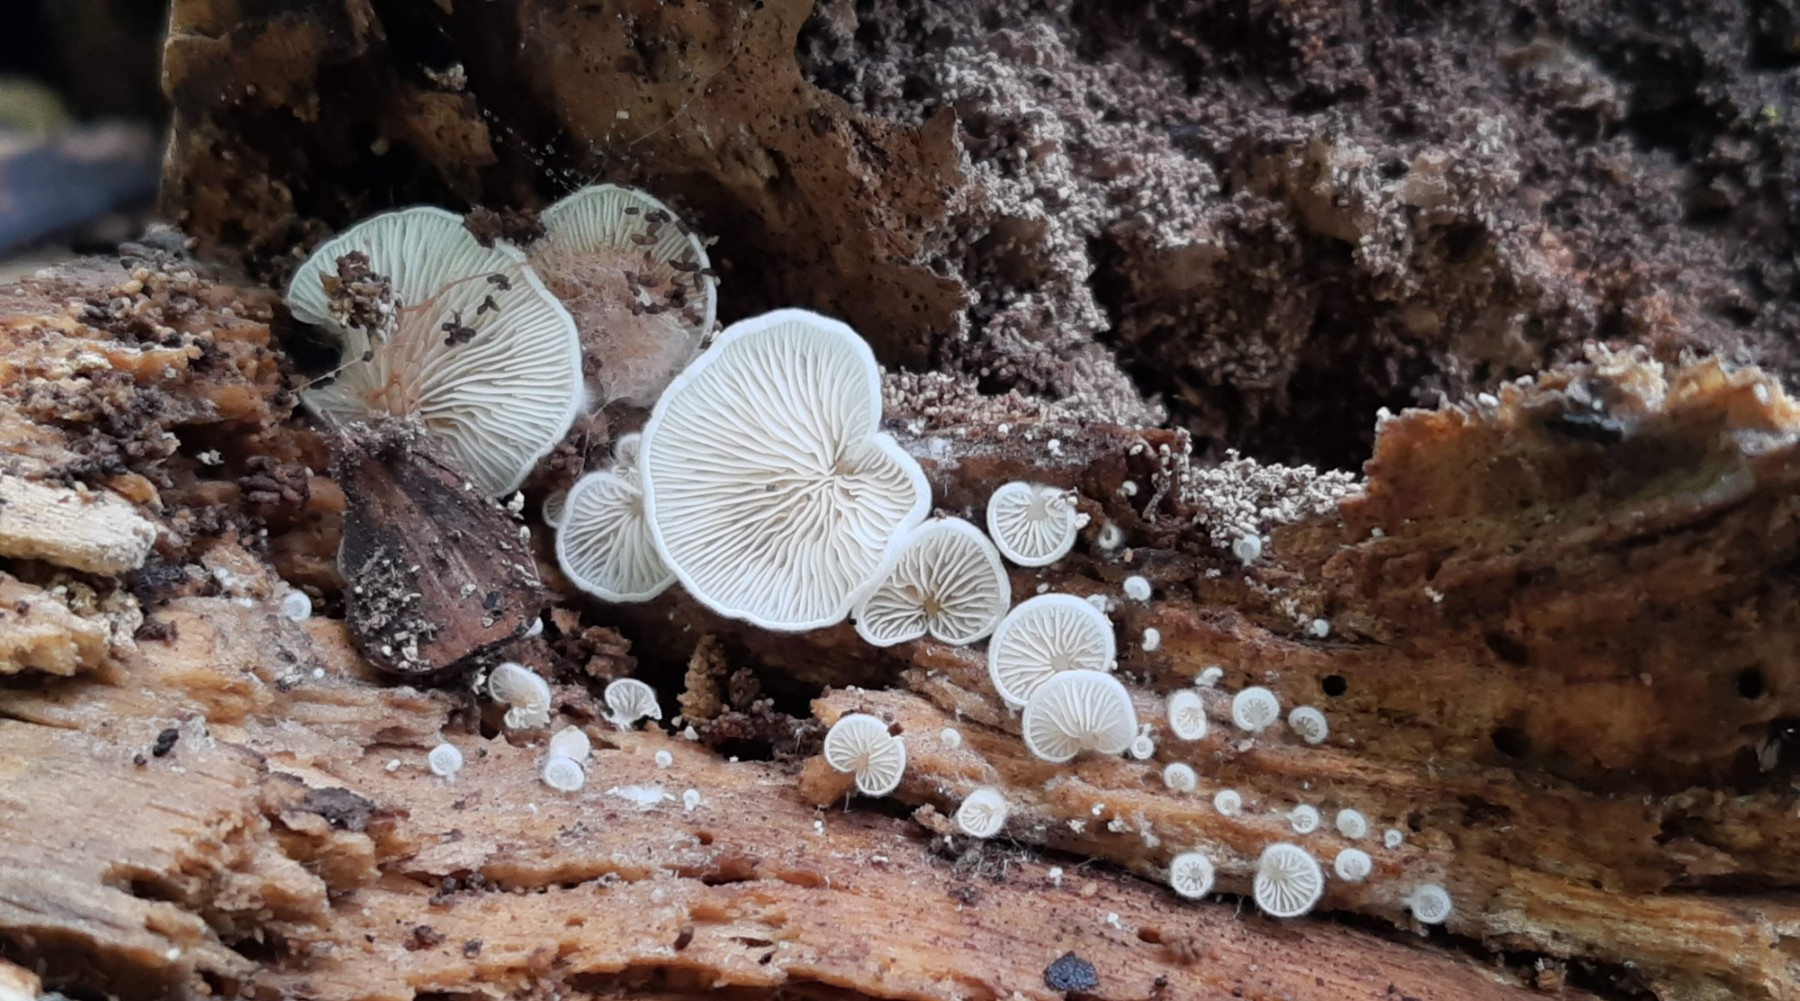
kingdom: Fungi
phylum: Basidiomycota
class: Agaricomycetes
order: Agaricales
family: Entolomataceae
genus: Clitopilus
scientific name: Clitopilus hobsonii
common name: Miller's oysterling
